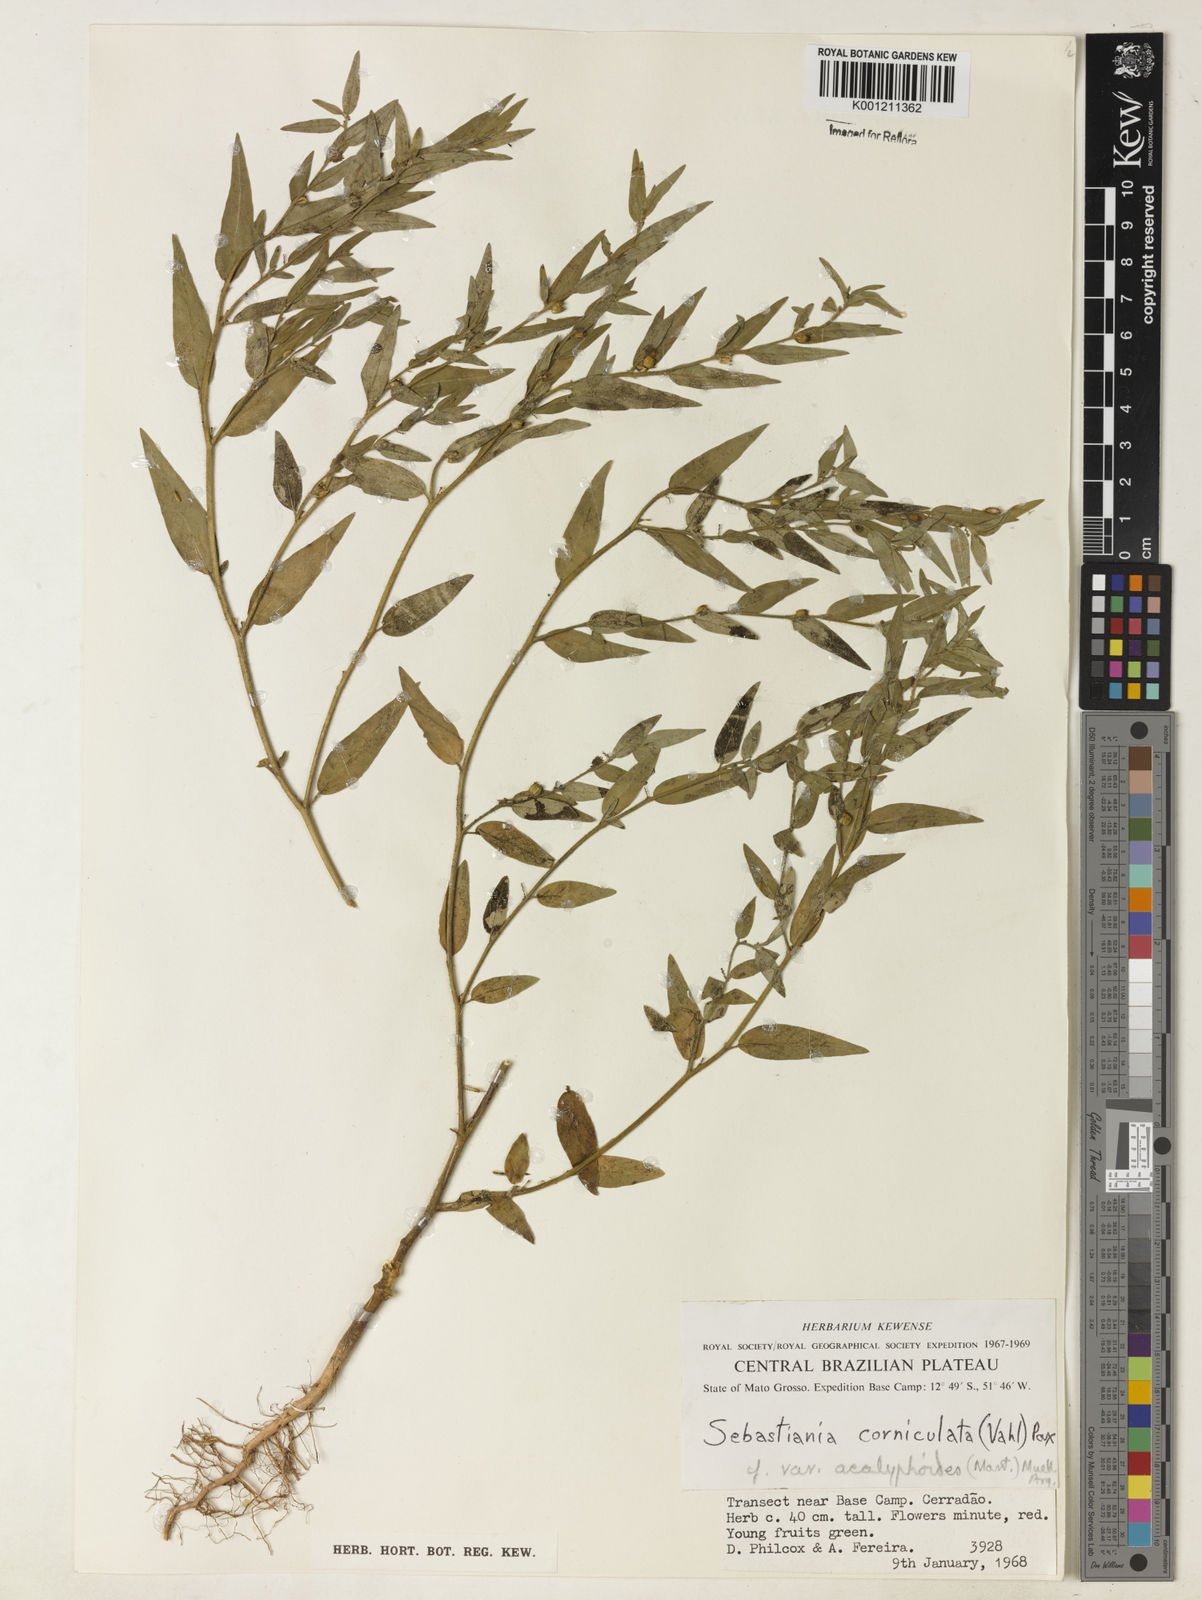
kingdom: Plantae
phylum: Tracheophyta
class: Magnoliopsida
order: Malpighiales
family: Euphorbiaceae
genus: Microstachys
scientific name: Microstachys corniculata
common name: Hato tejas
